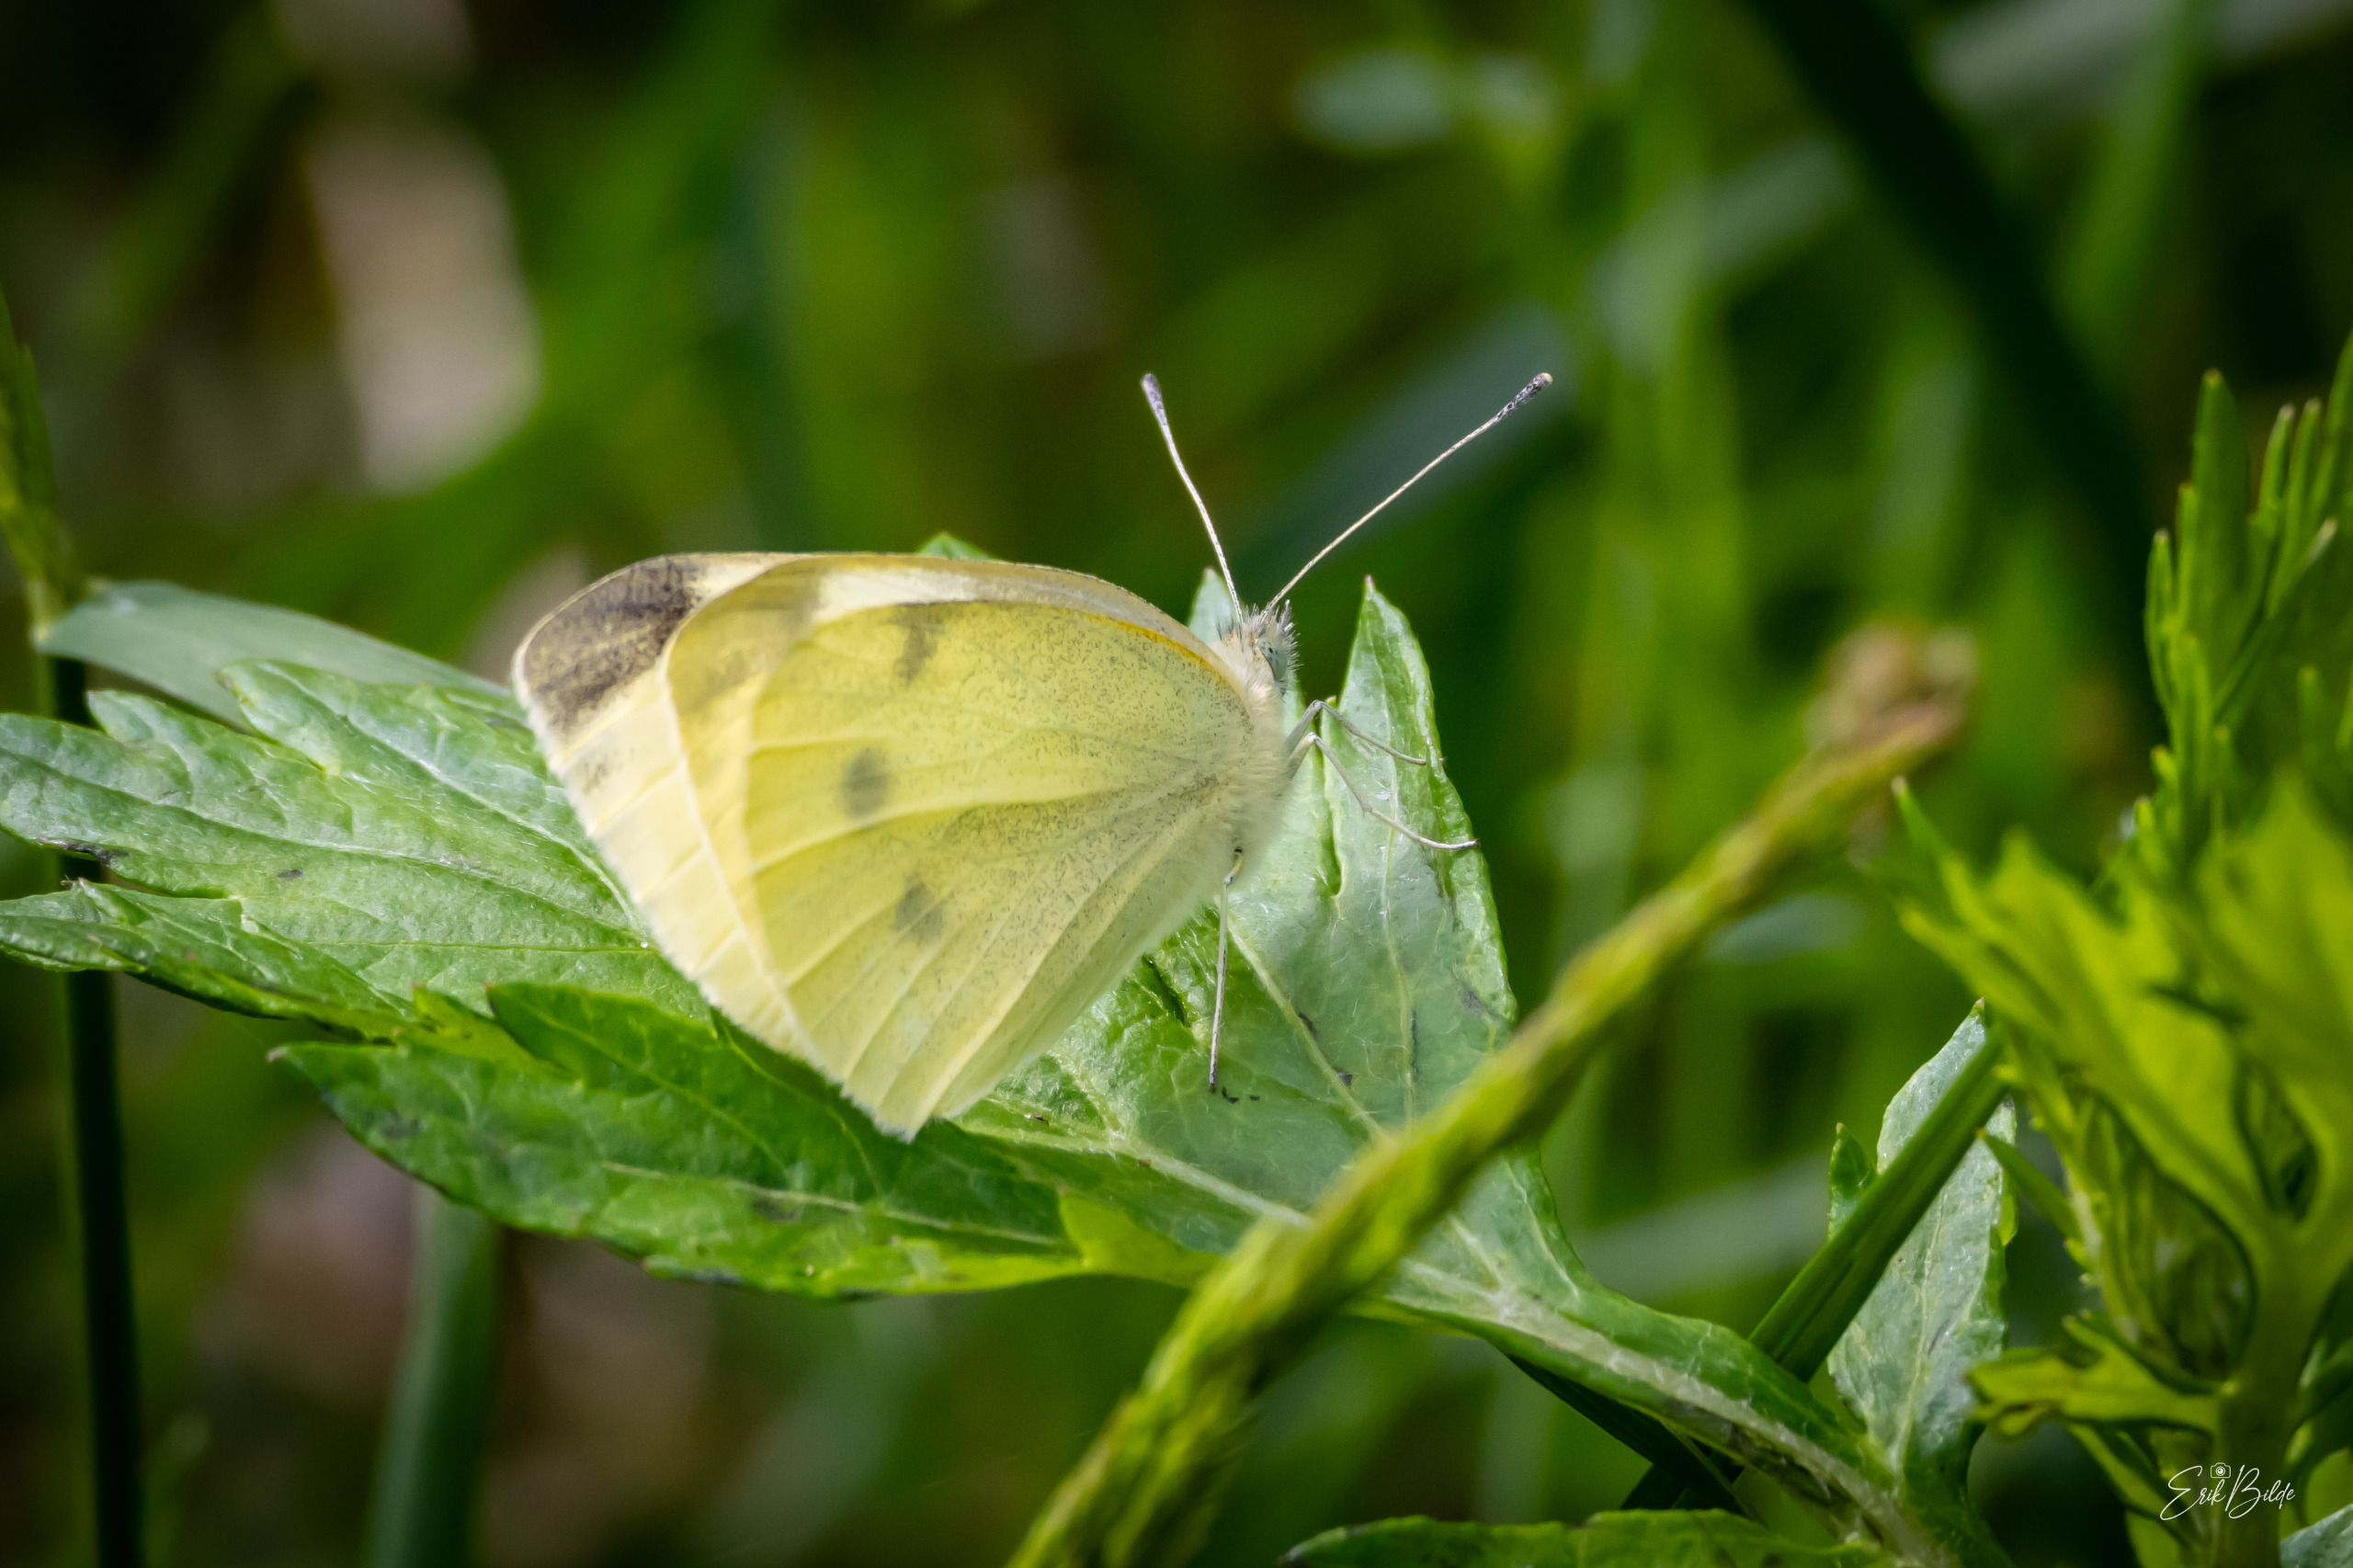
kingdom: Animalia
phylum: Arthropoda
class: Insecta
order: Lepidoptera
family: Pieridae
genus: Pieris
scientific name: Pieris rapae
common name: Lille kålsommerfugl
